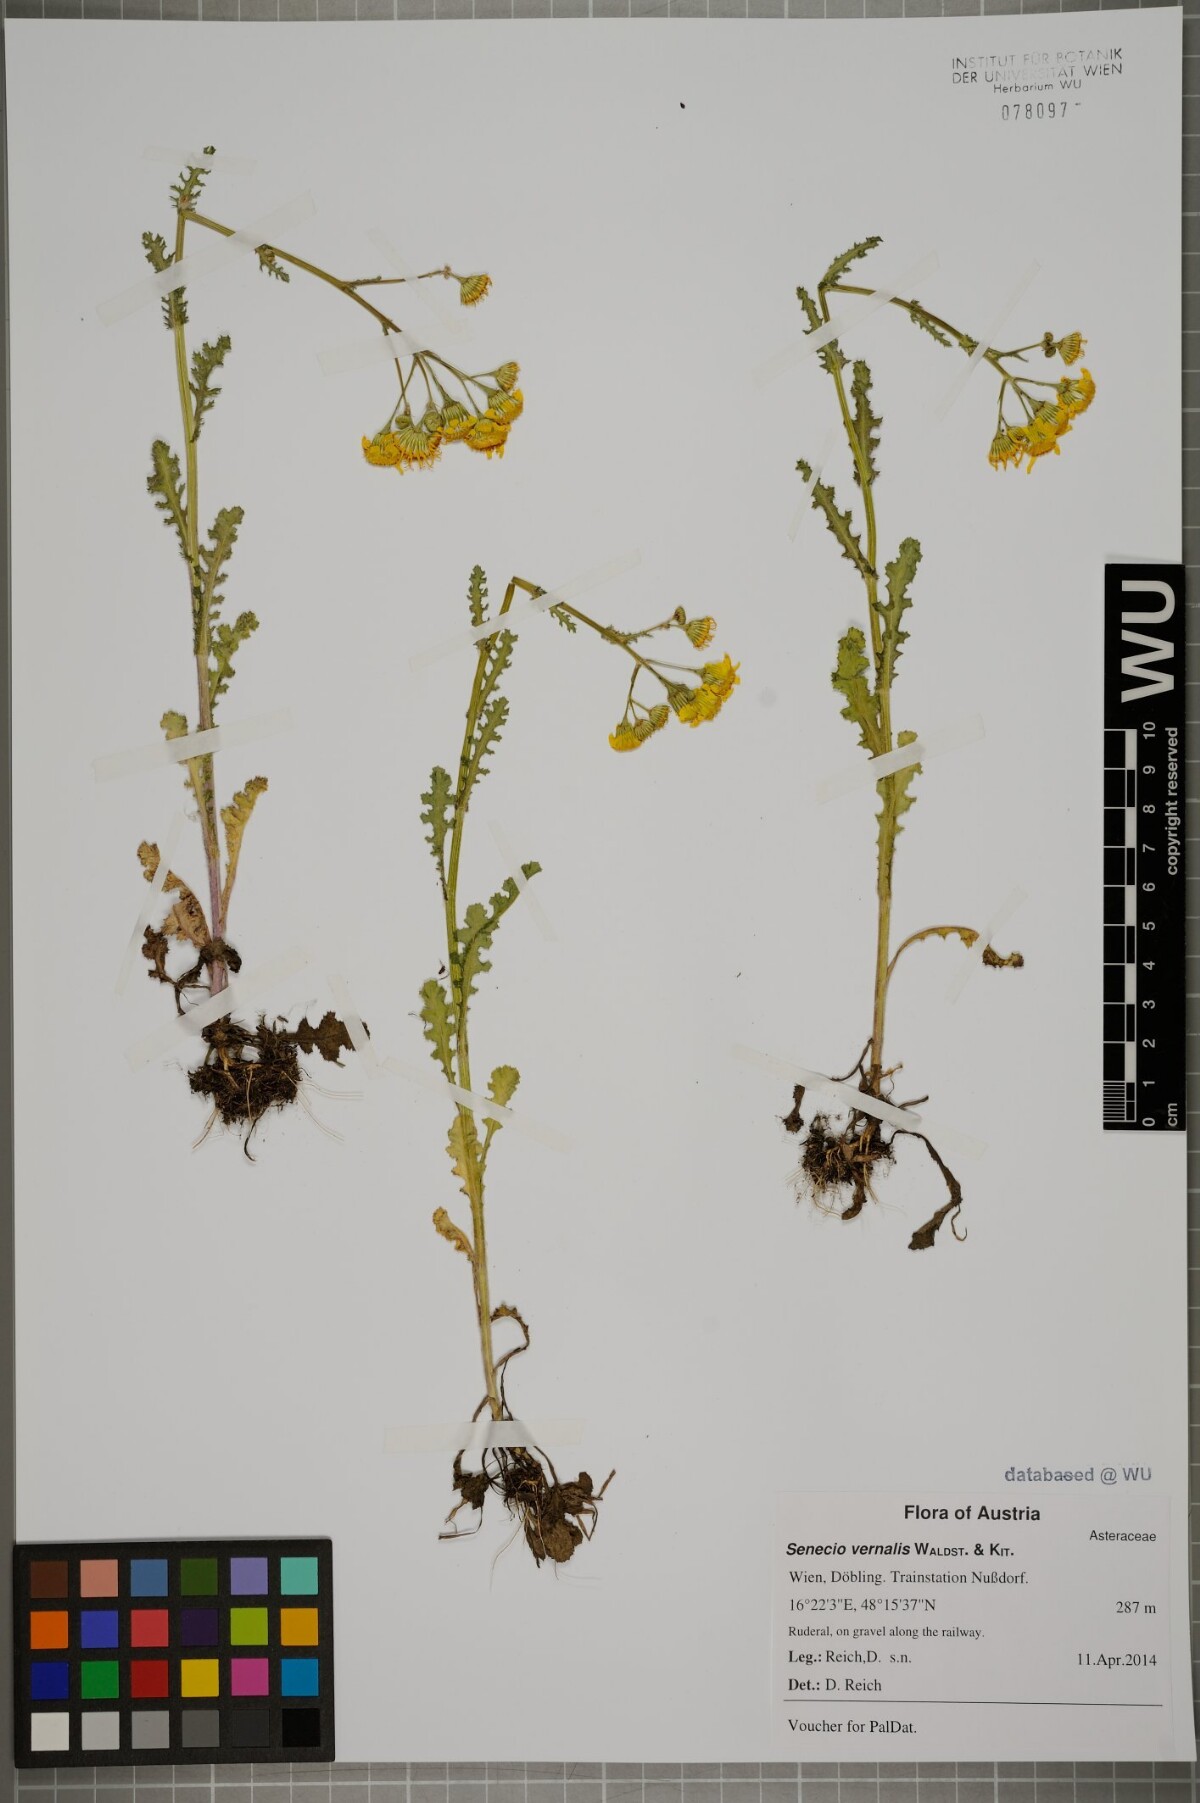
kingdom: Plantae
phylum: Tracheophyta
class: Magnoliopsida
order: Asterales
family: Asteraceae
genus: Senecio
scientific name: Senecio vernalis
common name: Eastern groundsel
